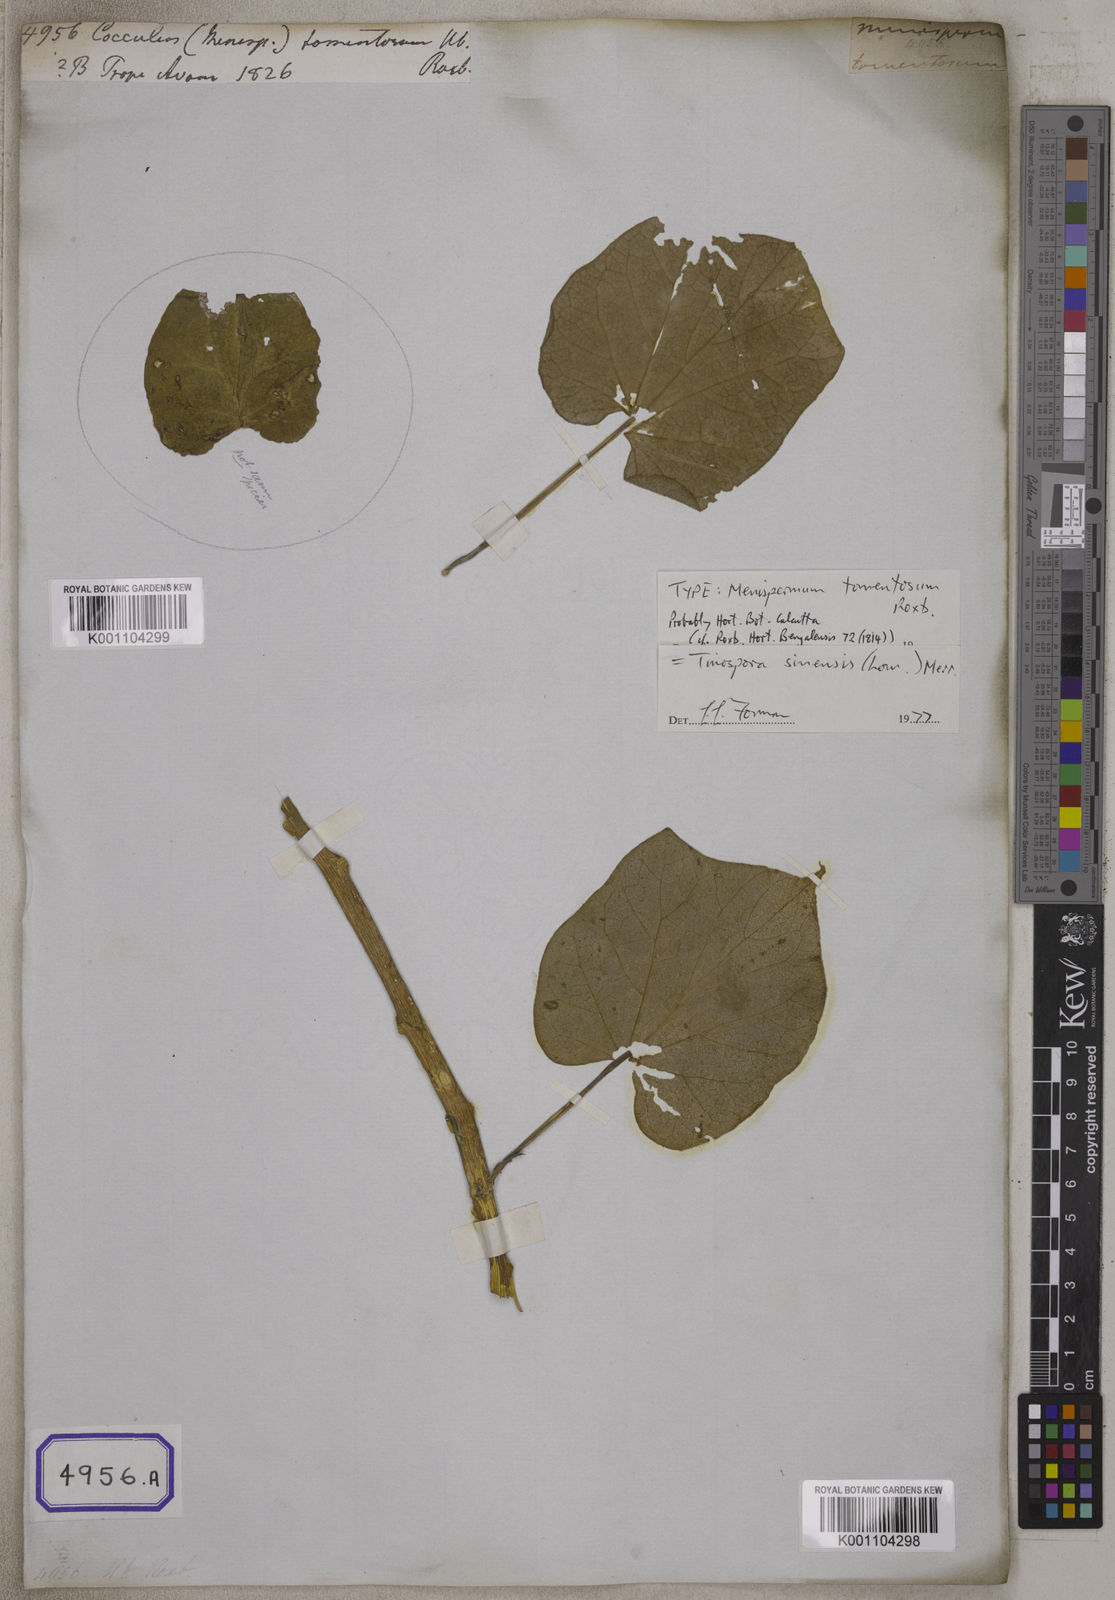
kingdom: Plantae
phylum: Tracheophyta
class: Magnoliopsida
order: Ranunculales
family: Menispermaceae
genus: Tinospora
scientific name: Tinospora sinensis
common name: Chinese tinospora
